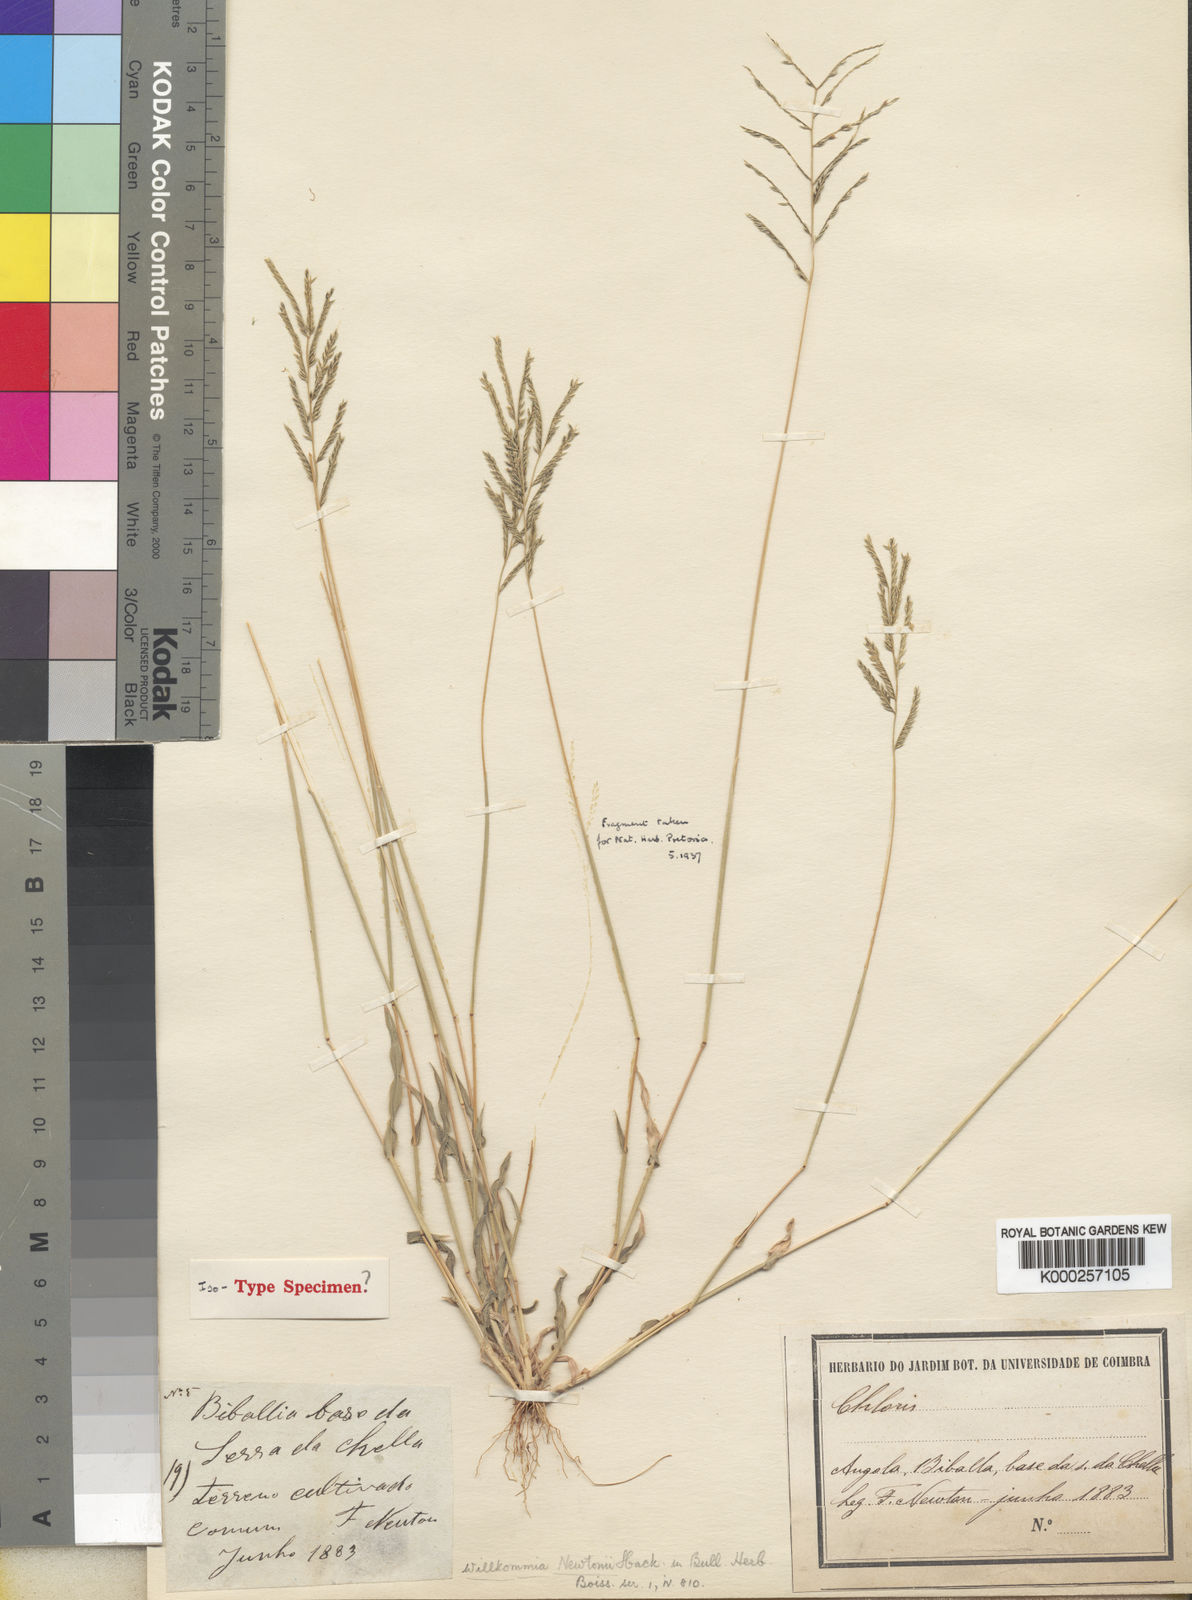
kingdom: Plantae
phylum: Tracheophyta
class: Liliopsida
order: Poales
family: Poaceae
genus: Willkommia
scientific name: Willkommia newtonii
